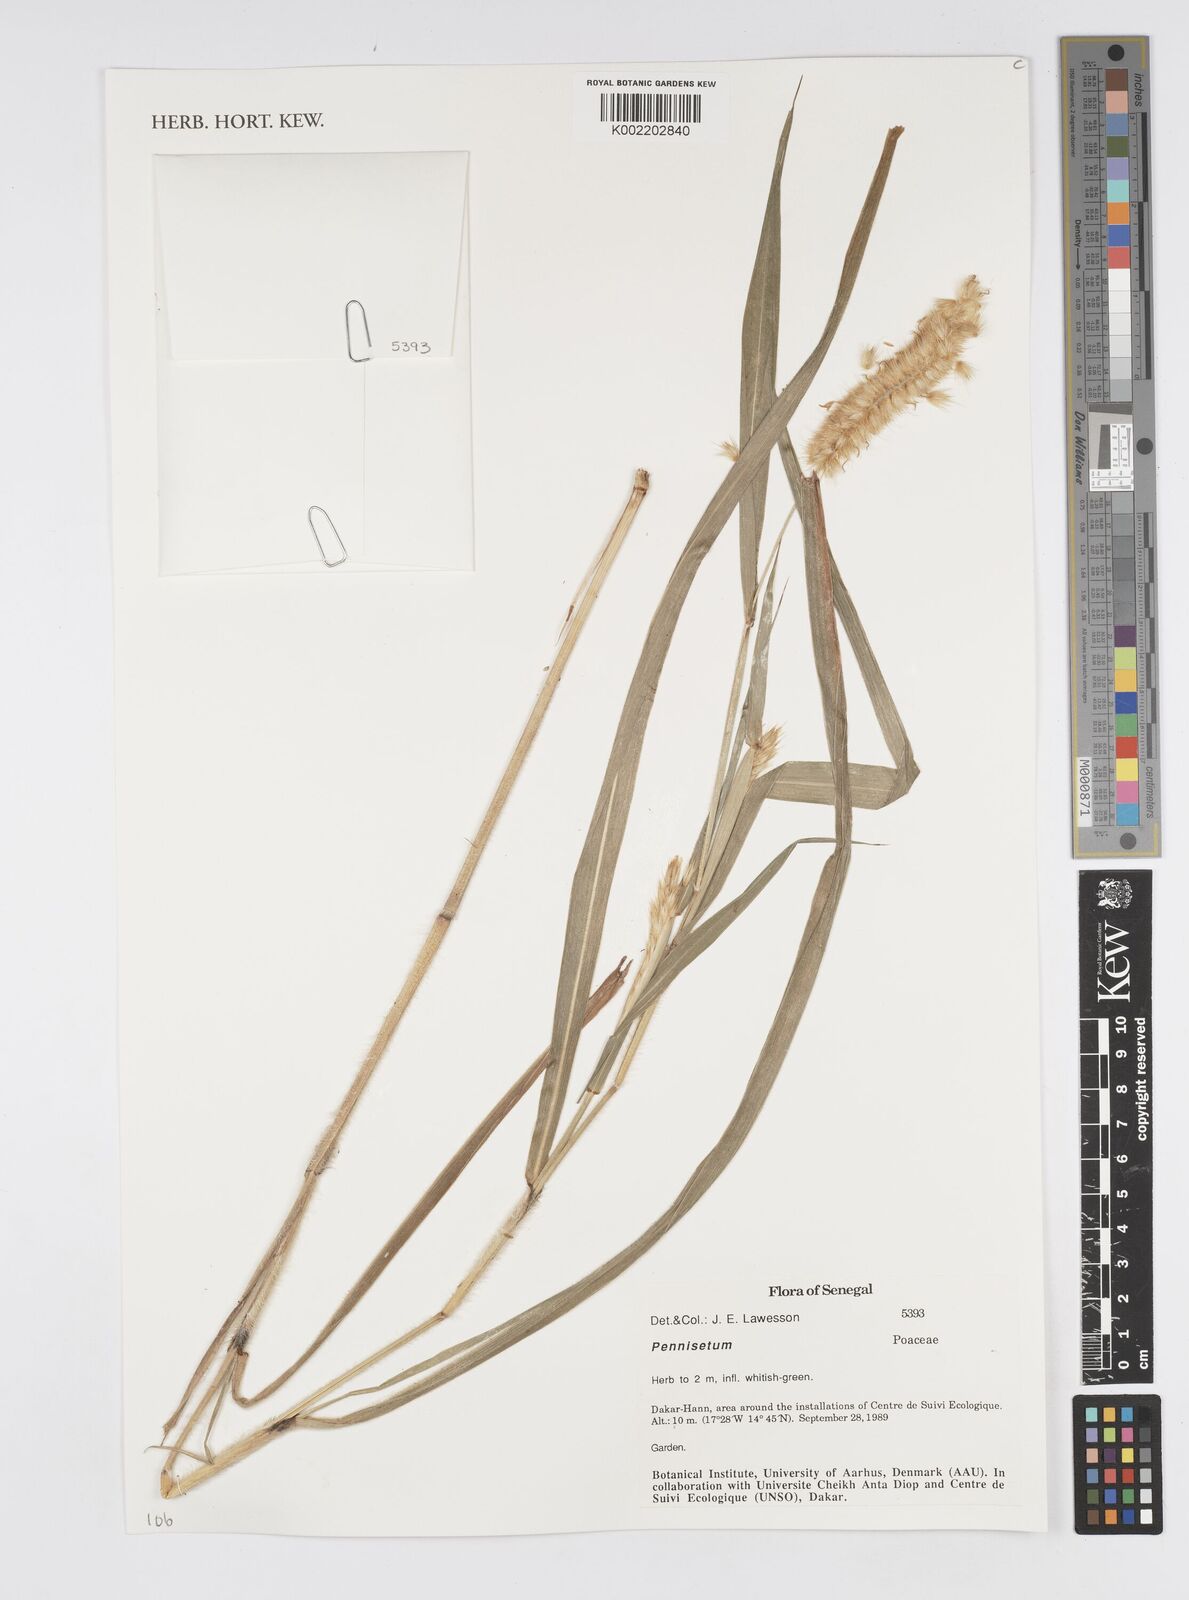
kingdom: Plantae
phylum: Tracheophyta
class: Liliopsida
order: Poales
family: Poaceae
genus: Cenchrus
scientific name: Cenchrus Pennisetum spec
